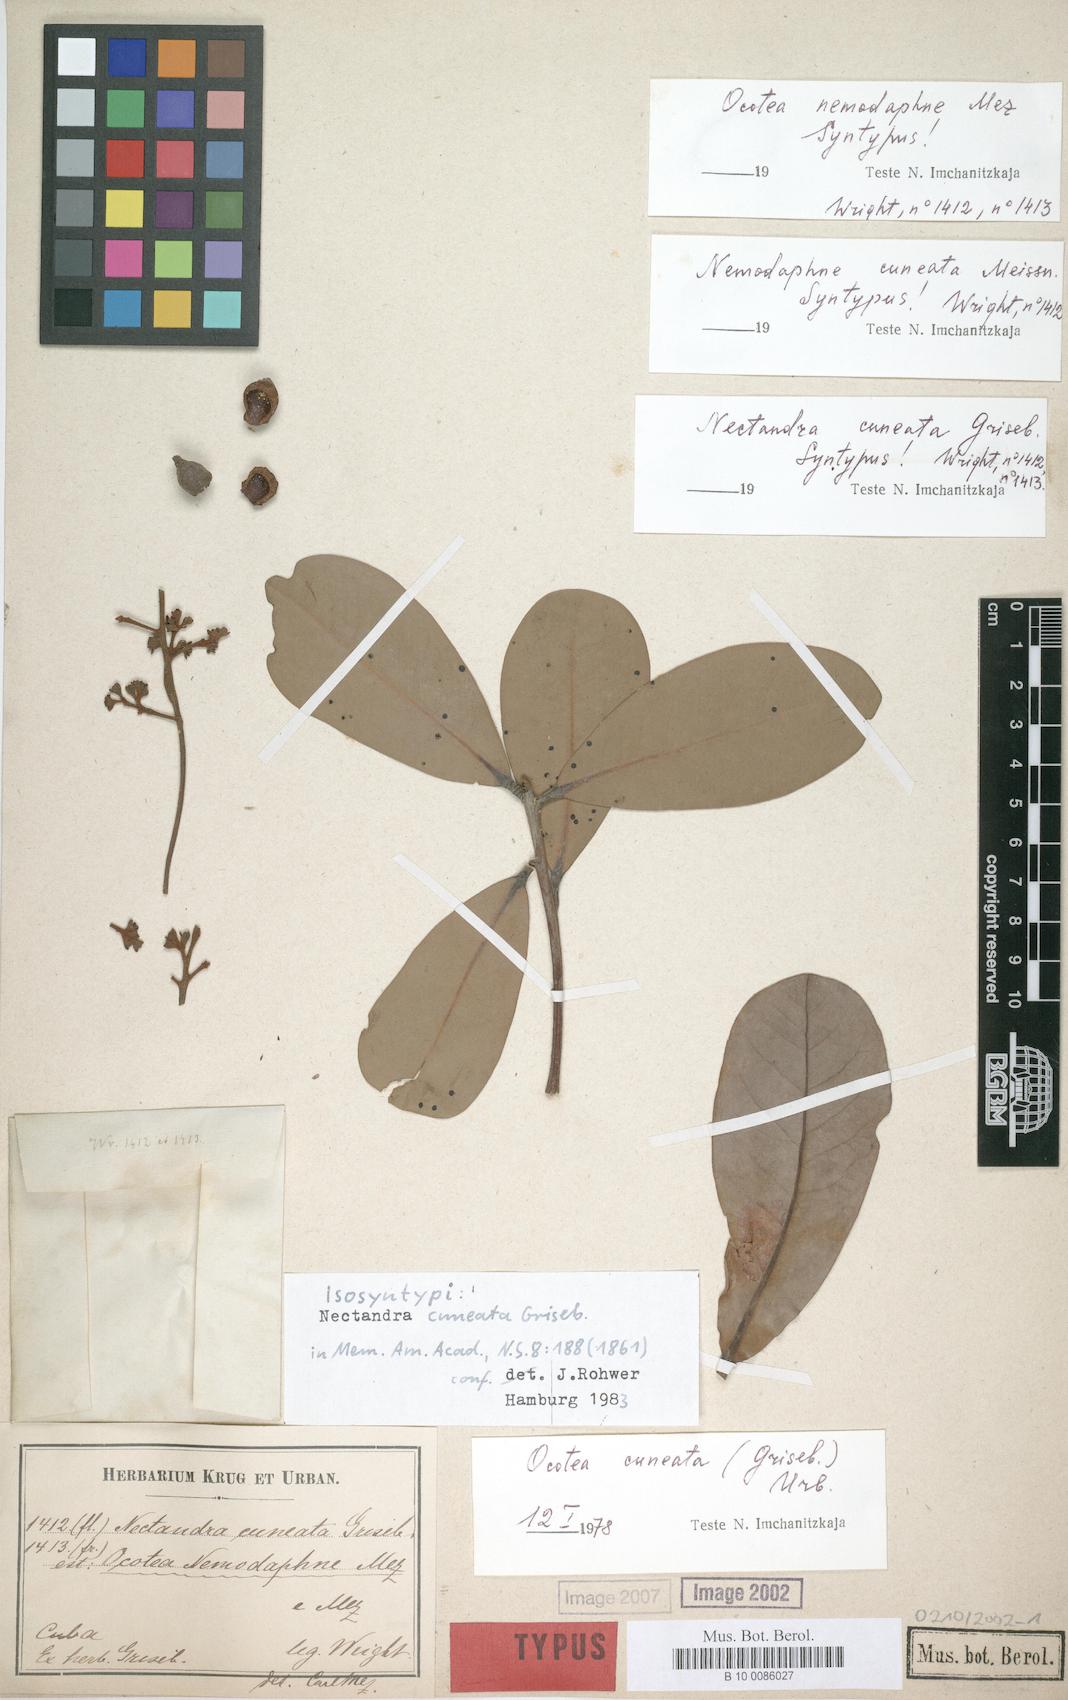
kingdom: Plantae
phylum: Tracheophyta
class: Magnoliopsida
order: Laurales
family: Lauraceae
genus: Ocotea
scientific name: Ocotea cuneata
